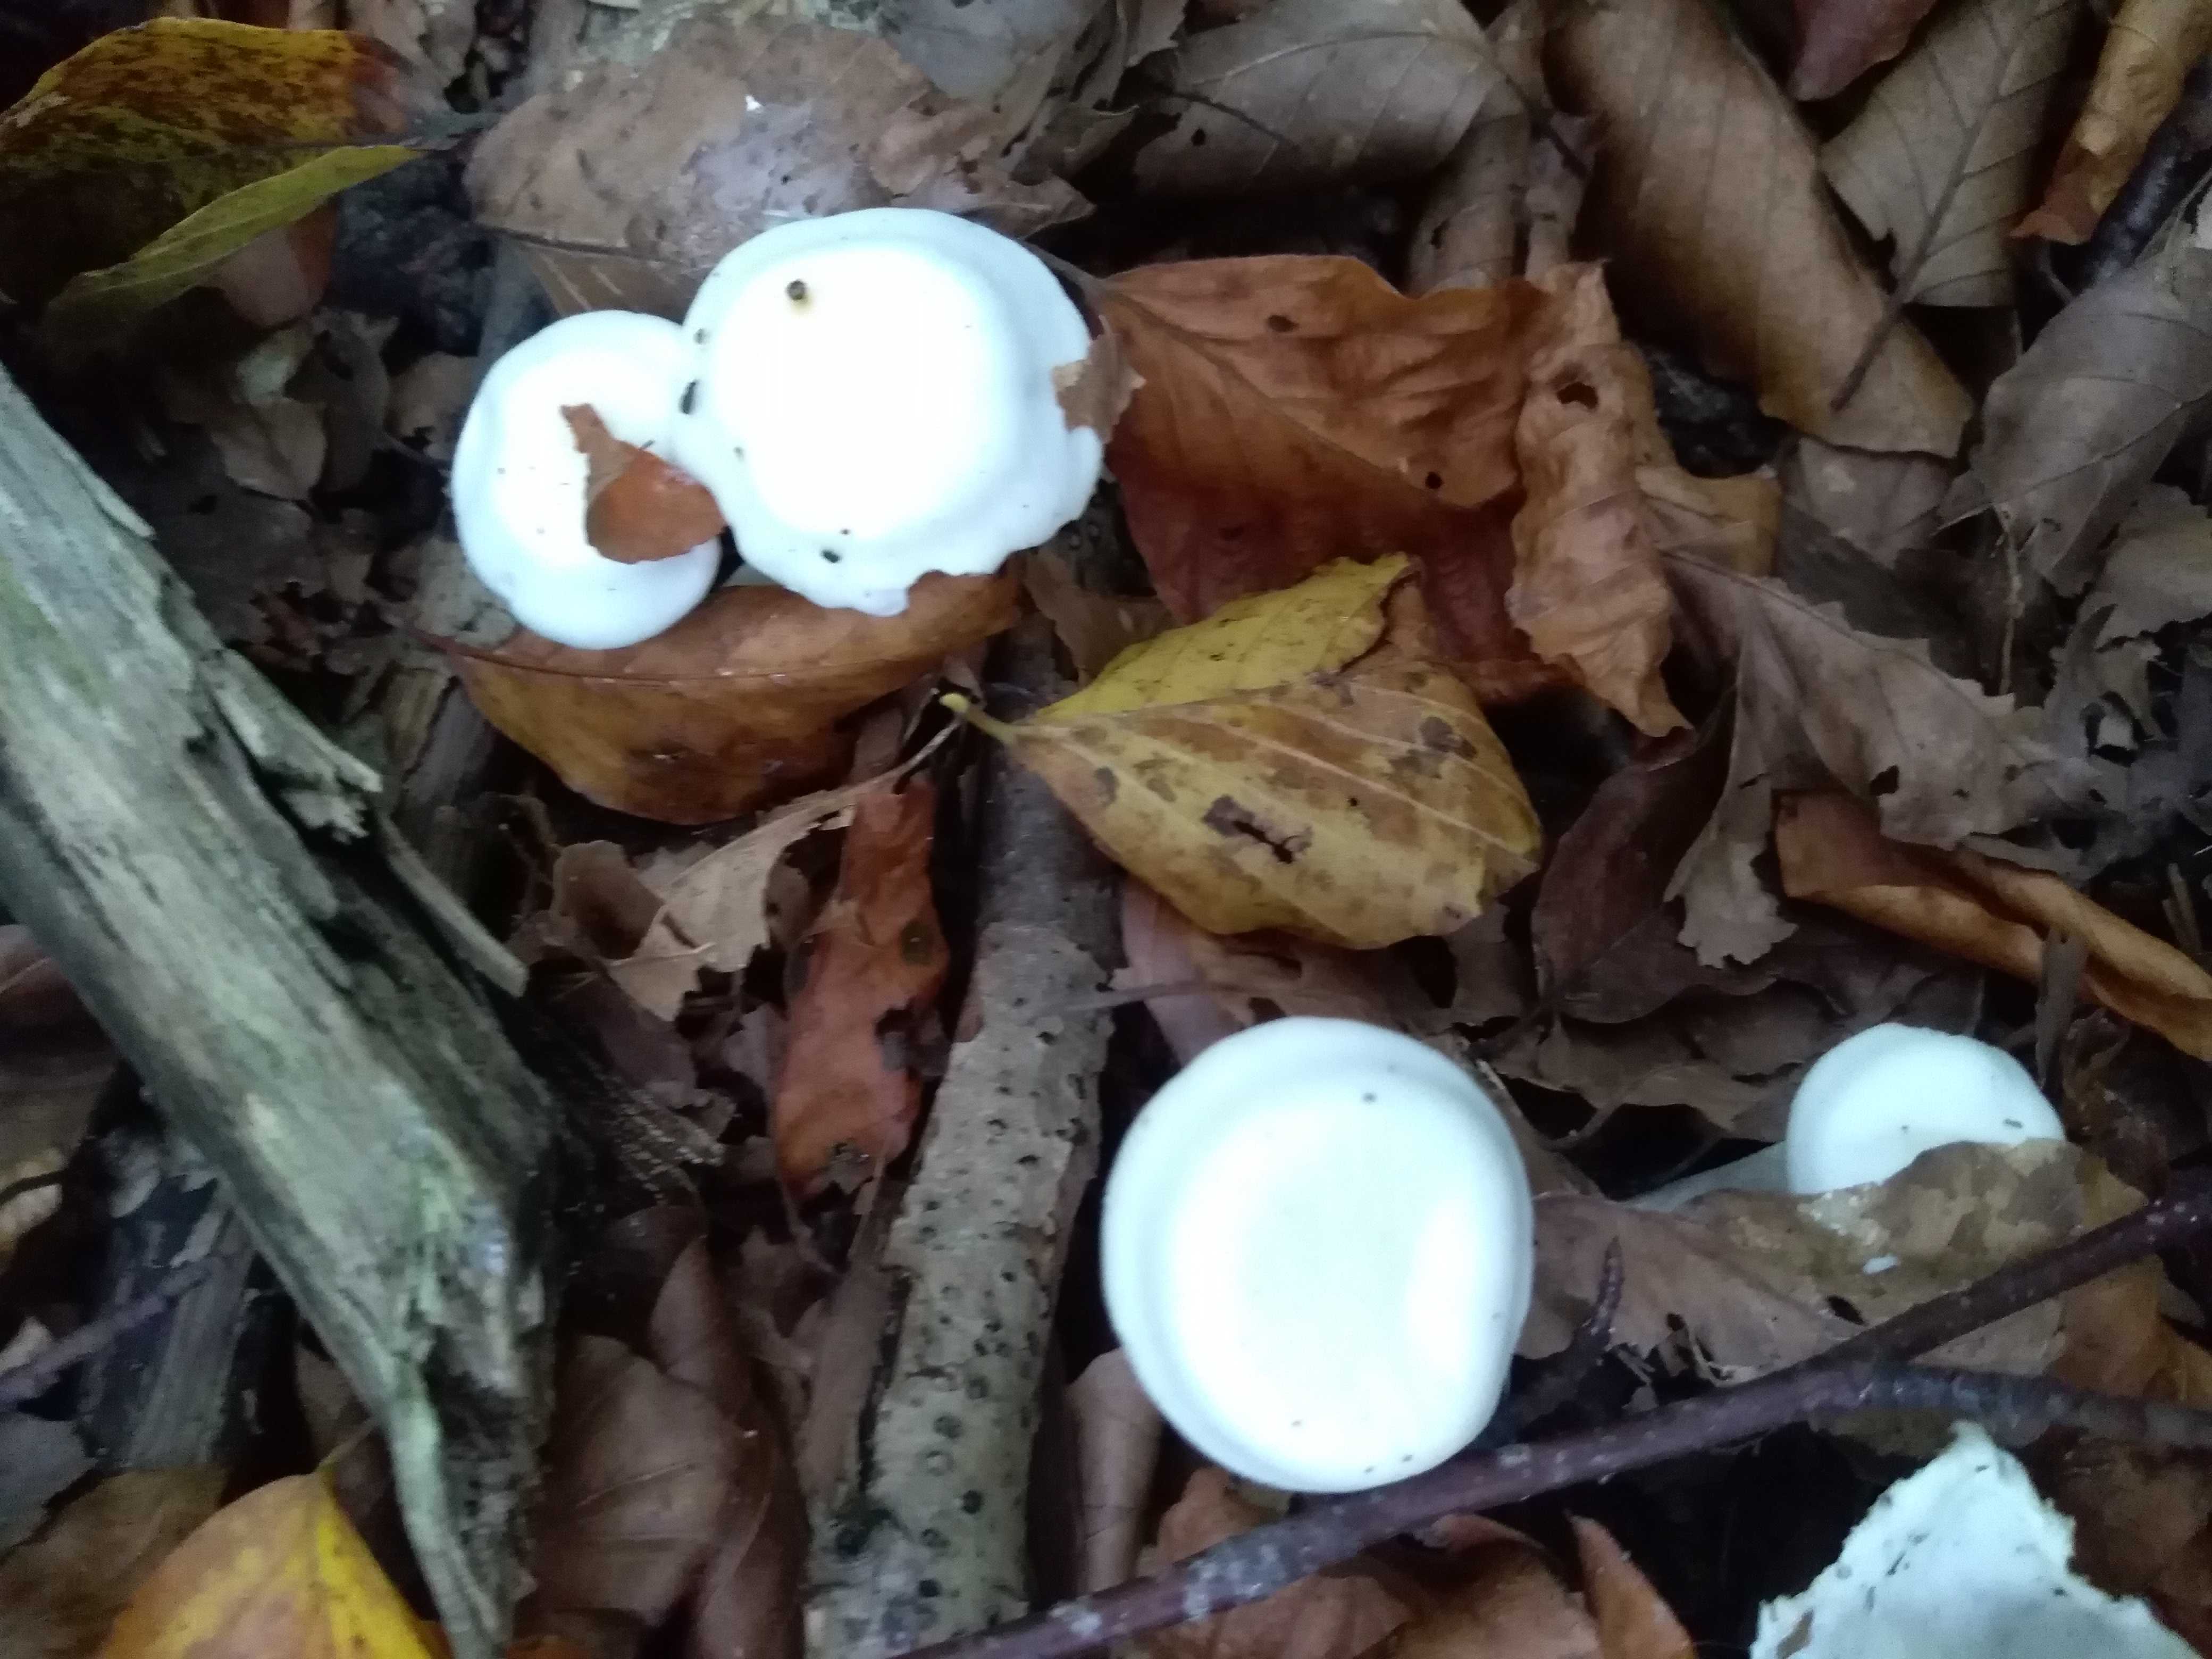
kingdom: Fungi
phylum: Basidiomycota
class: Agaricomycetes
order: Agaricales
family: Hygrophoraceae
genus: Hygrophorus
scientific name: Hygrophorus eburneus
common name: elfenbens-sneglehat
